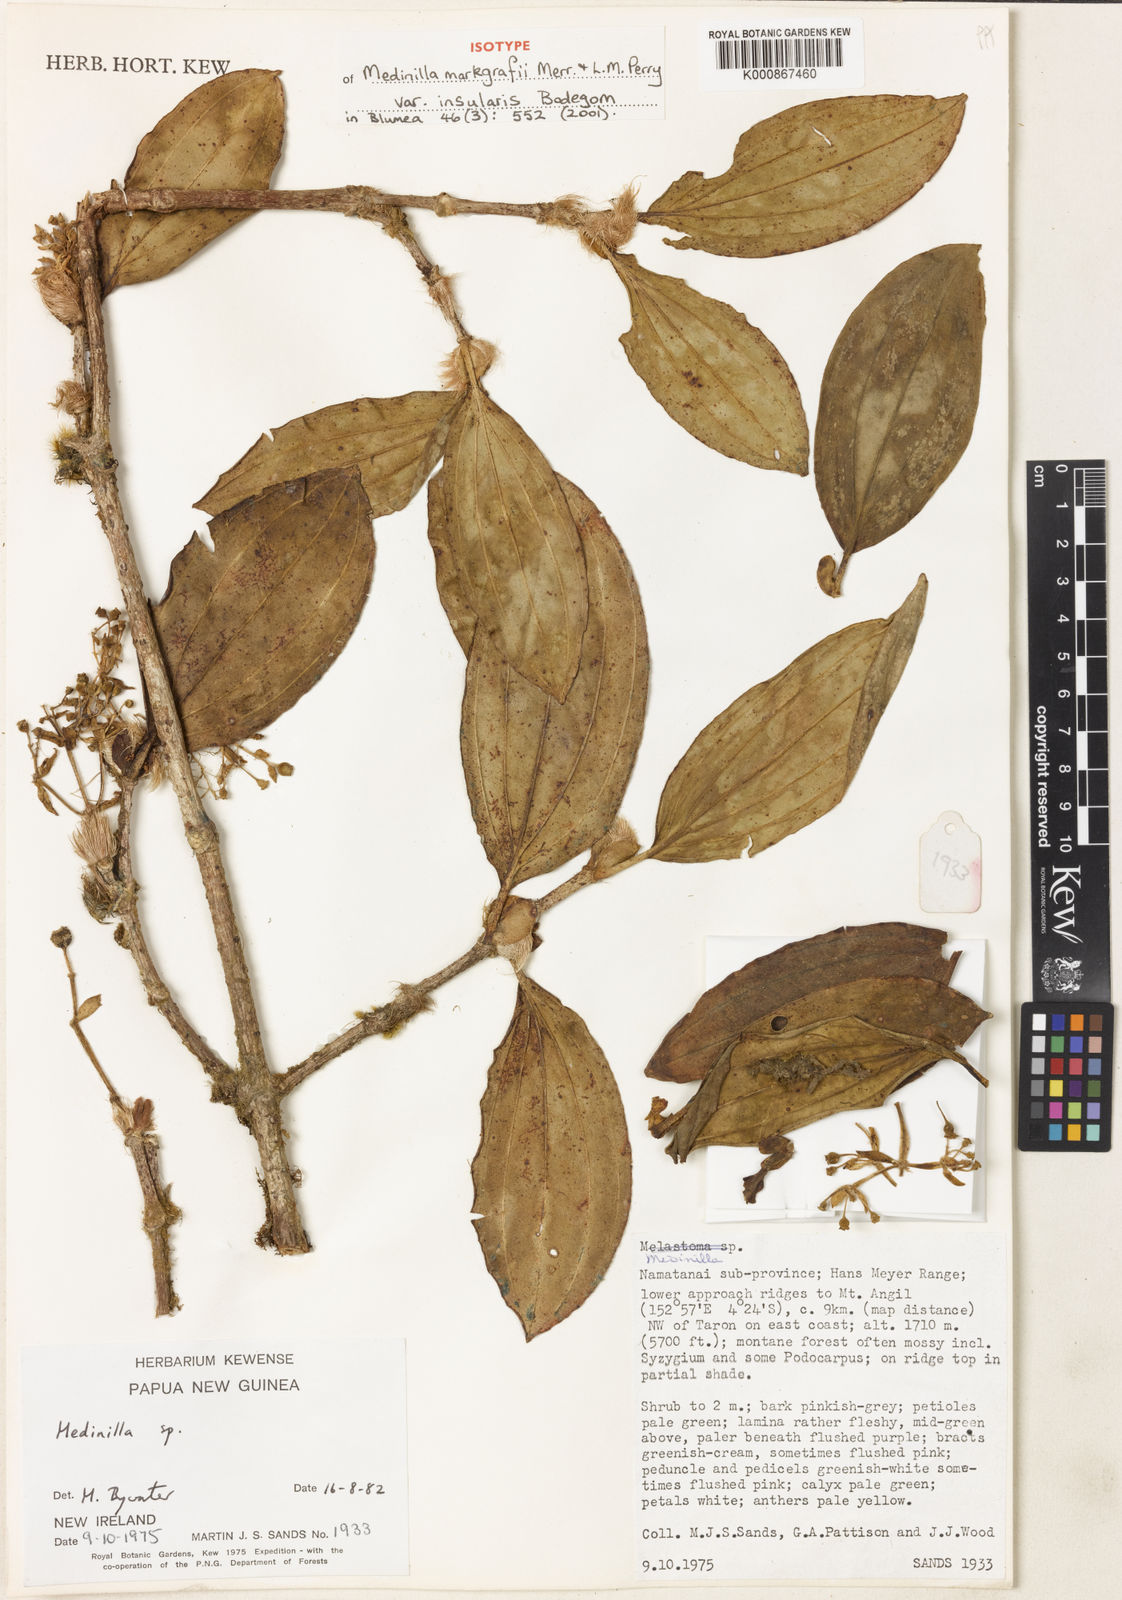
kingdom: Plantae
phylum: Tracheophyta
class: Magnoliopsida
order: Myrtales
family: Melastomataceae
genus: Medinilla
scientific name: Medinilla markgrafii
